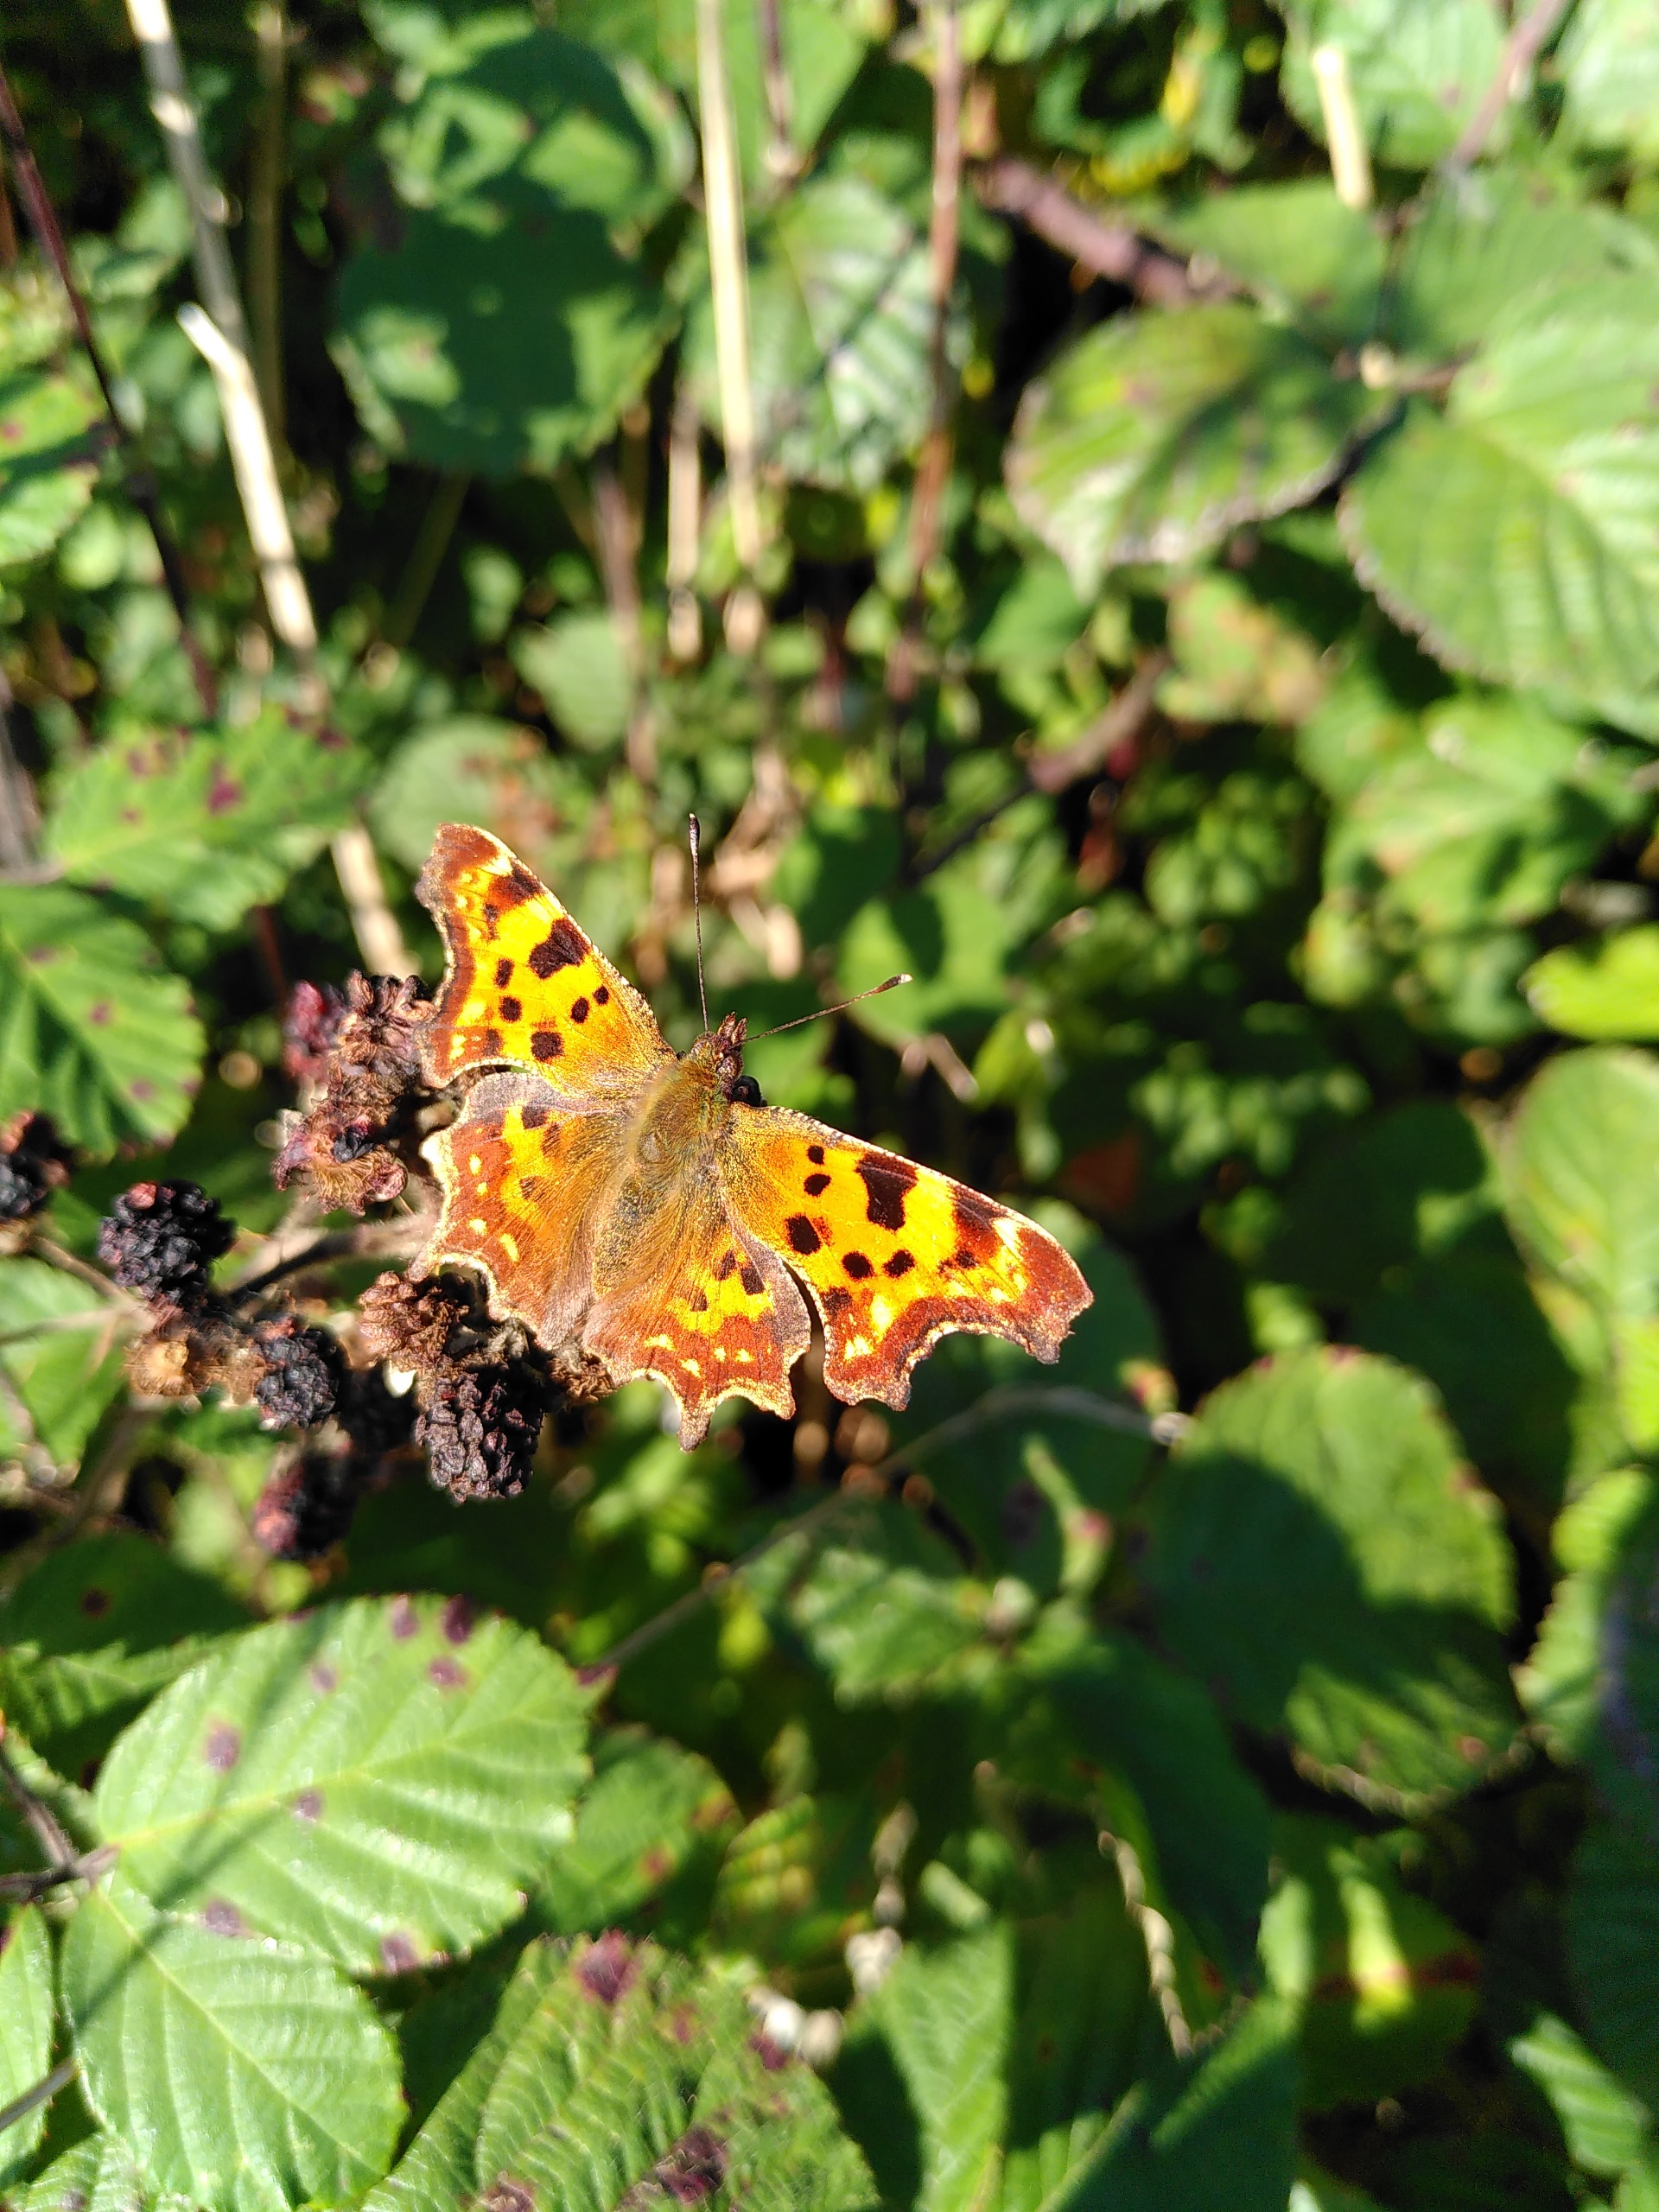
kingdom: Animalia
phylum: Arthropoda
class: Insecta
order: Lepidoptera
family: Nymphalidae
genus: Polygonia
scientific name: Polygonia c-album
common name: Det hvide C
